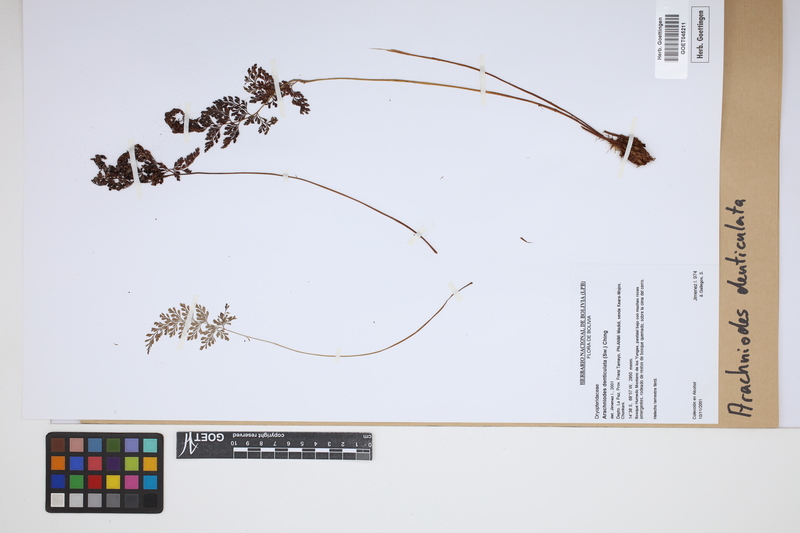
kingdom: Plantae
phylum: Tracheophyta
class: Polypodiopsida
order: Polypodiales
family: Dryopteridaceae
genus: Arachniodes
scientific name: Arachniodes denticulata
